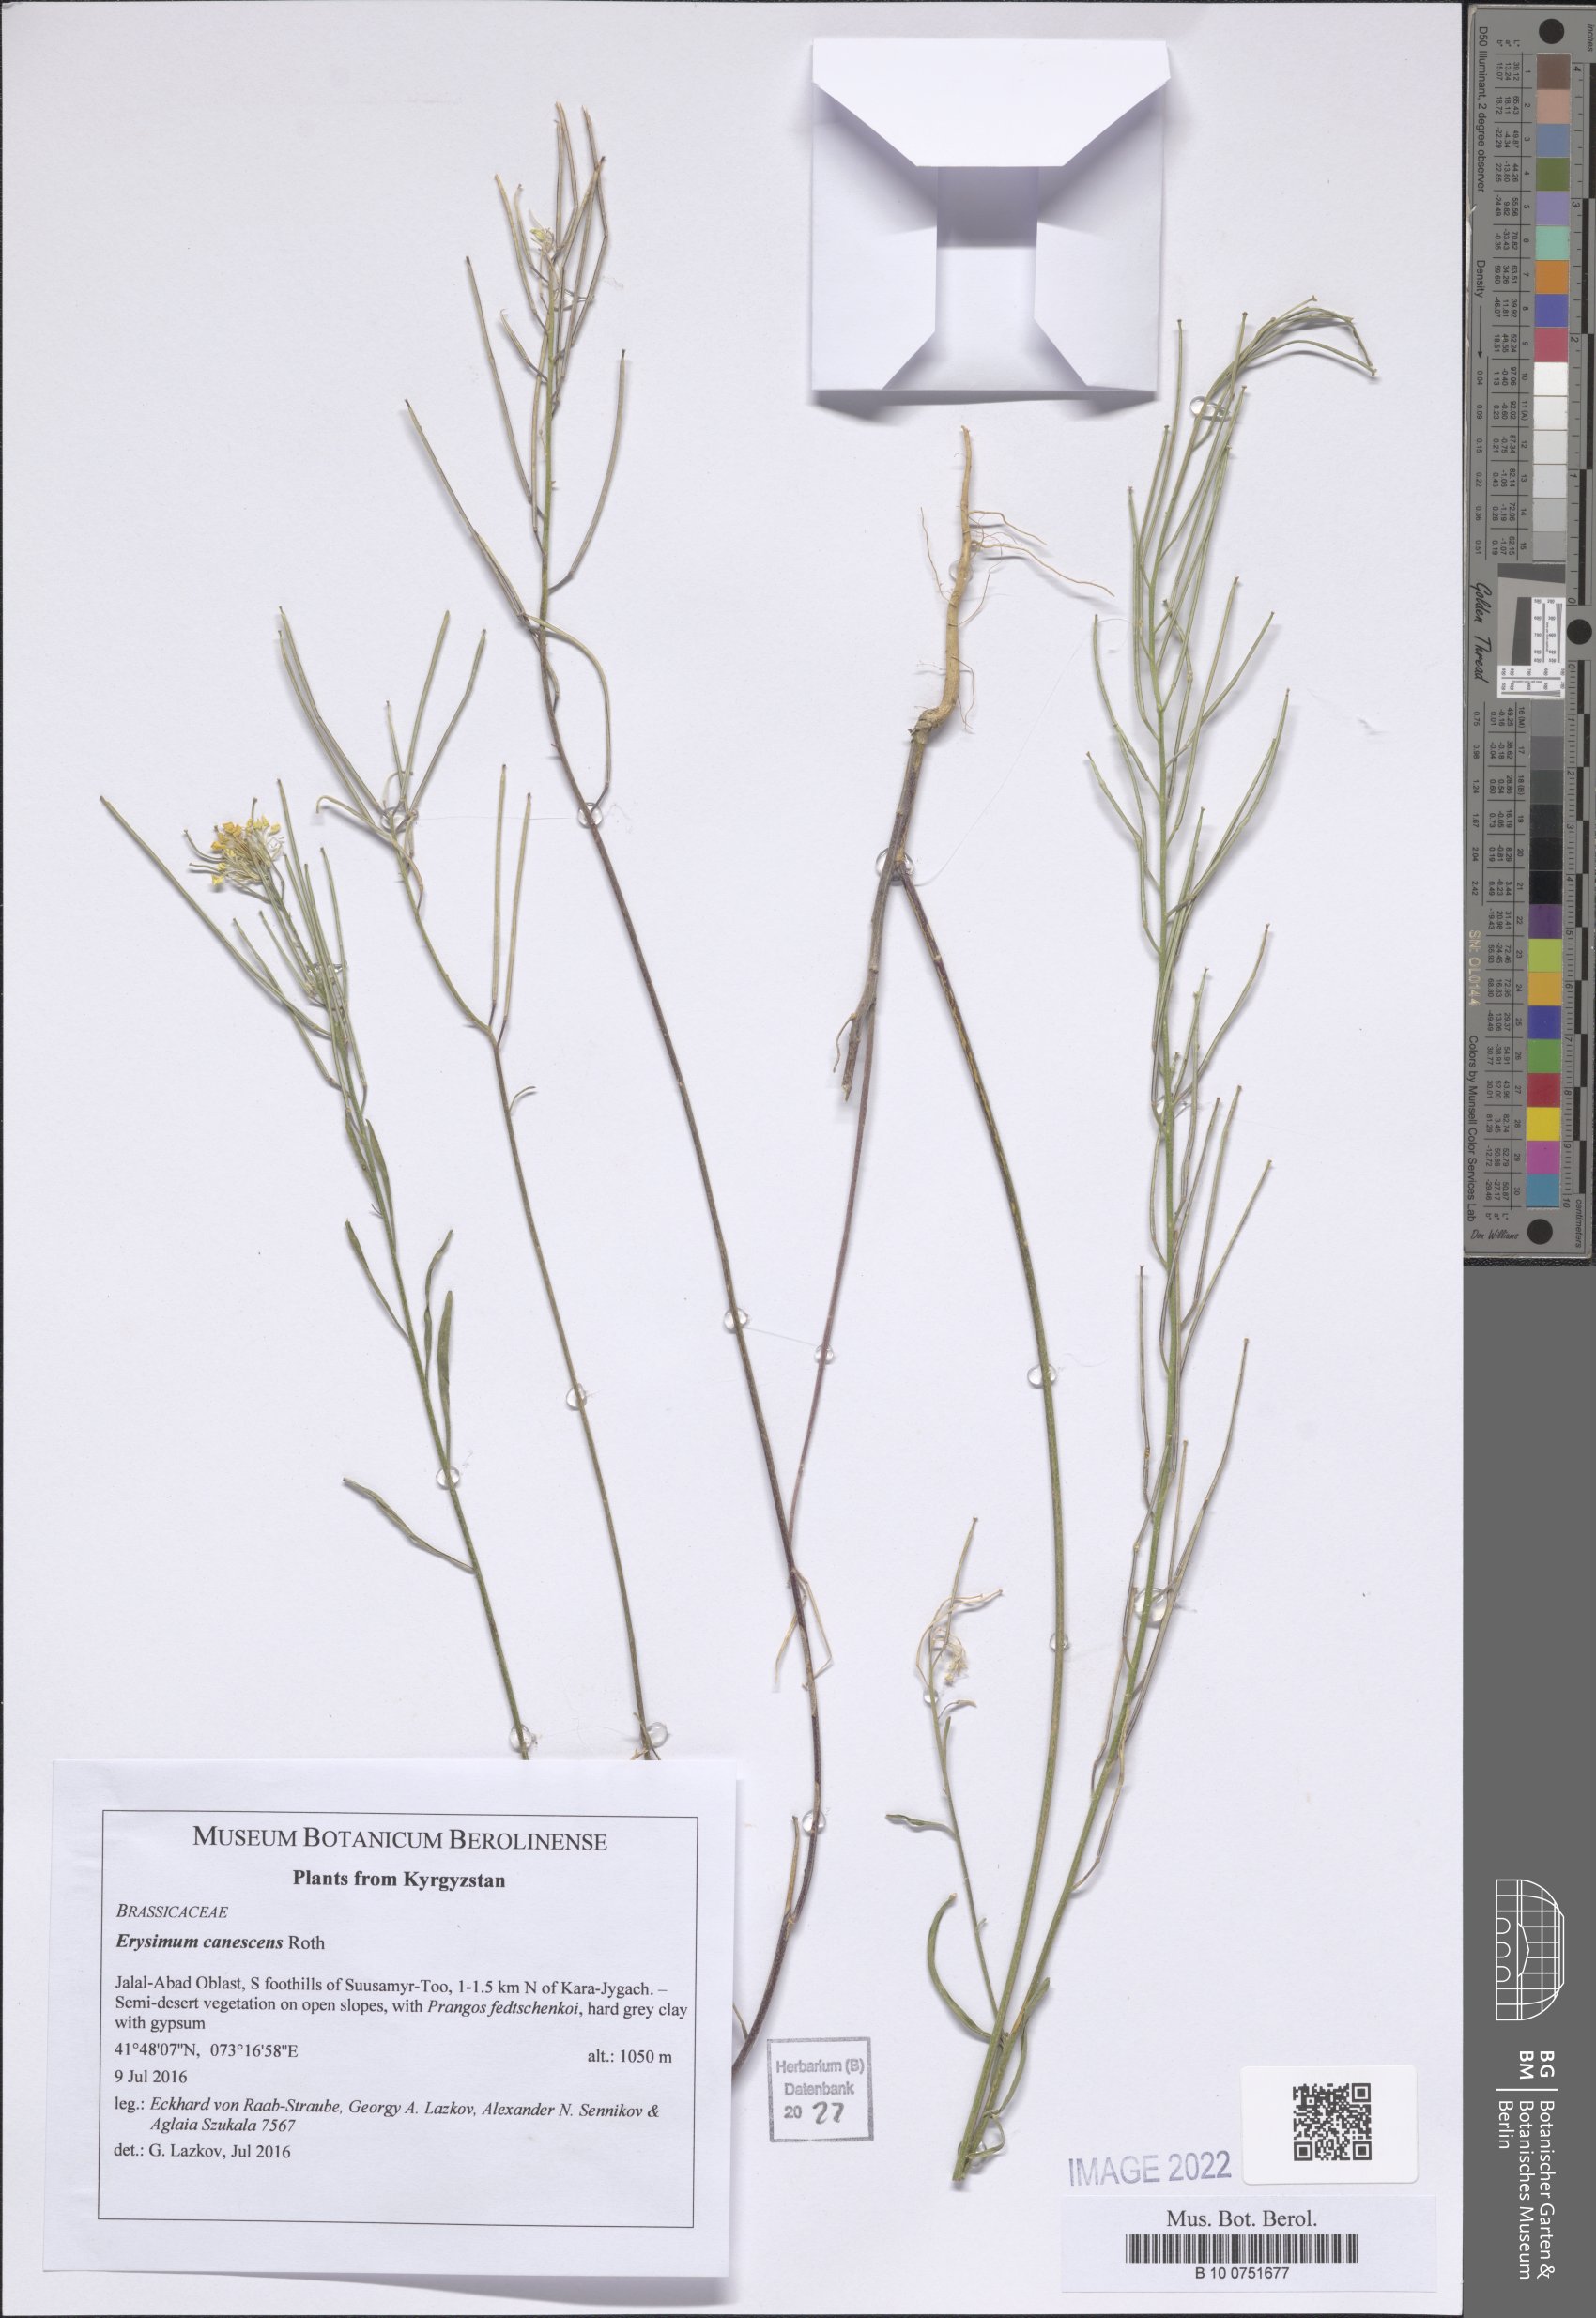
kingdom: Plantae
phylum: Tracheophyta
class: Magnoliopsida
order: Brassicales
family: Brassicaceae
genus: Erysimum
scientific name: Erysimum diffusum
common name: Diffuse wallflower
